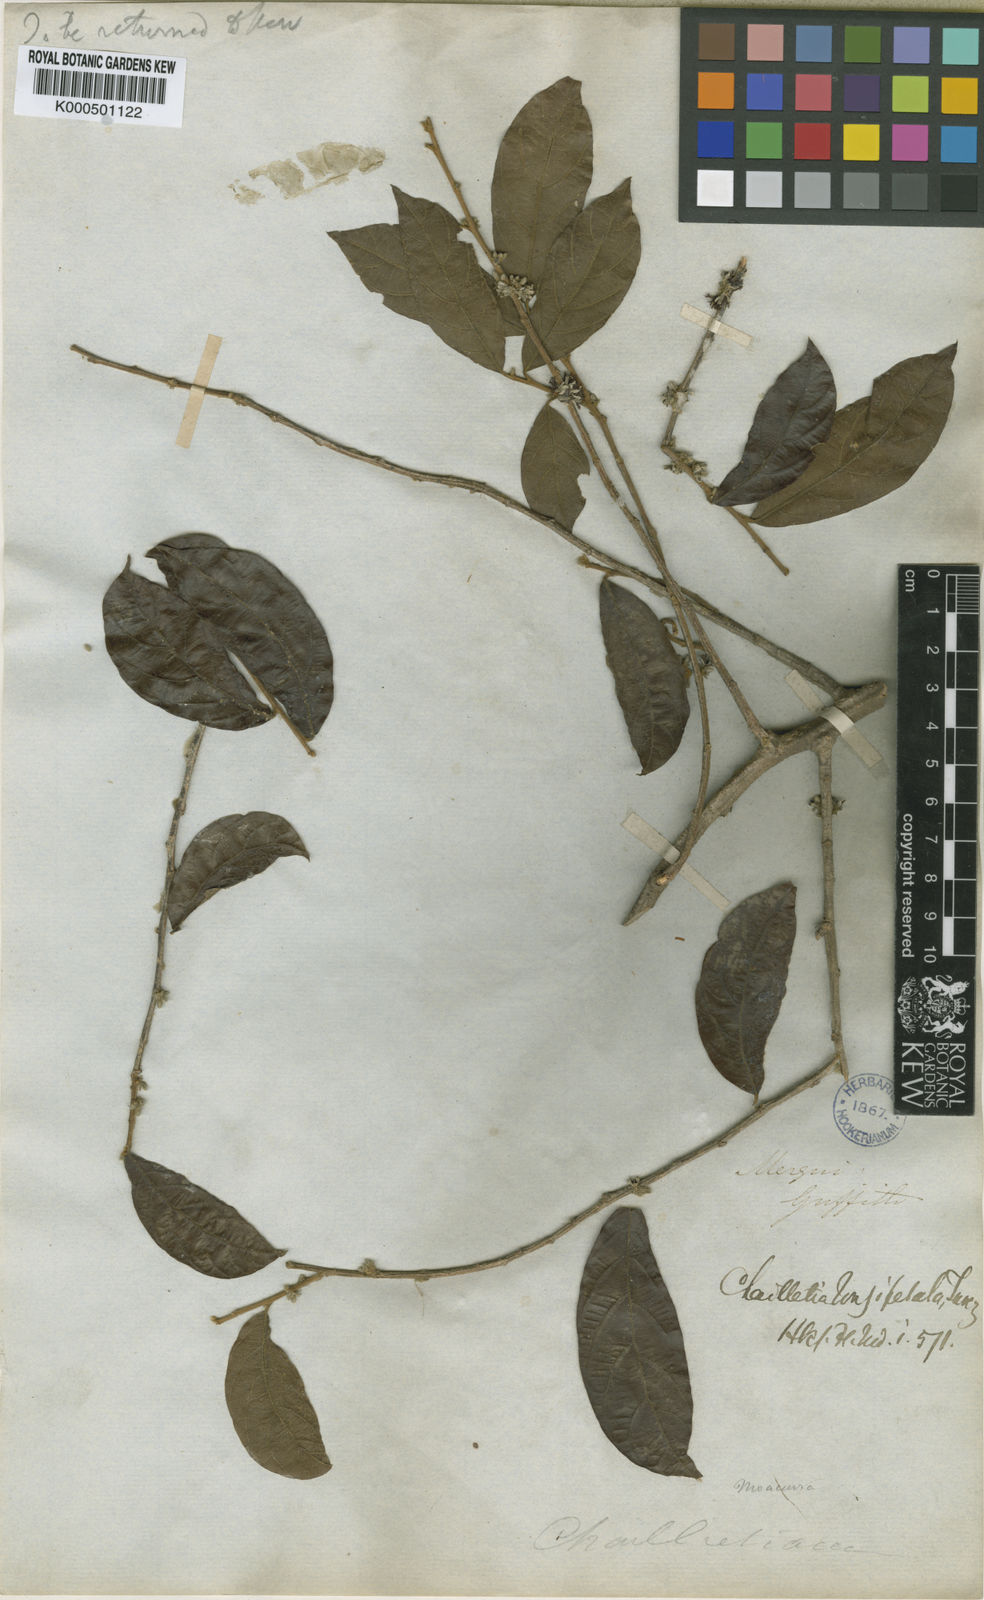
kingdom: Plantae
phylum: Tracheophyta
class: Magnoliopsida
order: Malpighiales
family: Dichapetalaceae
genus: Dichapetalum
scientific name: Dichapetalum
